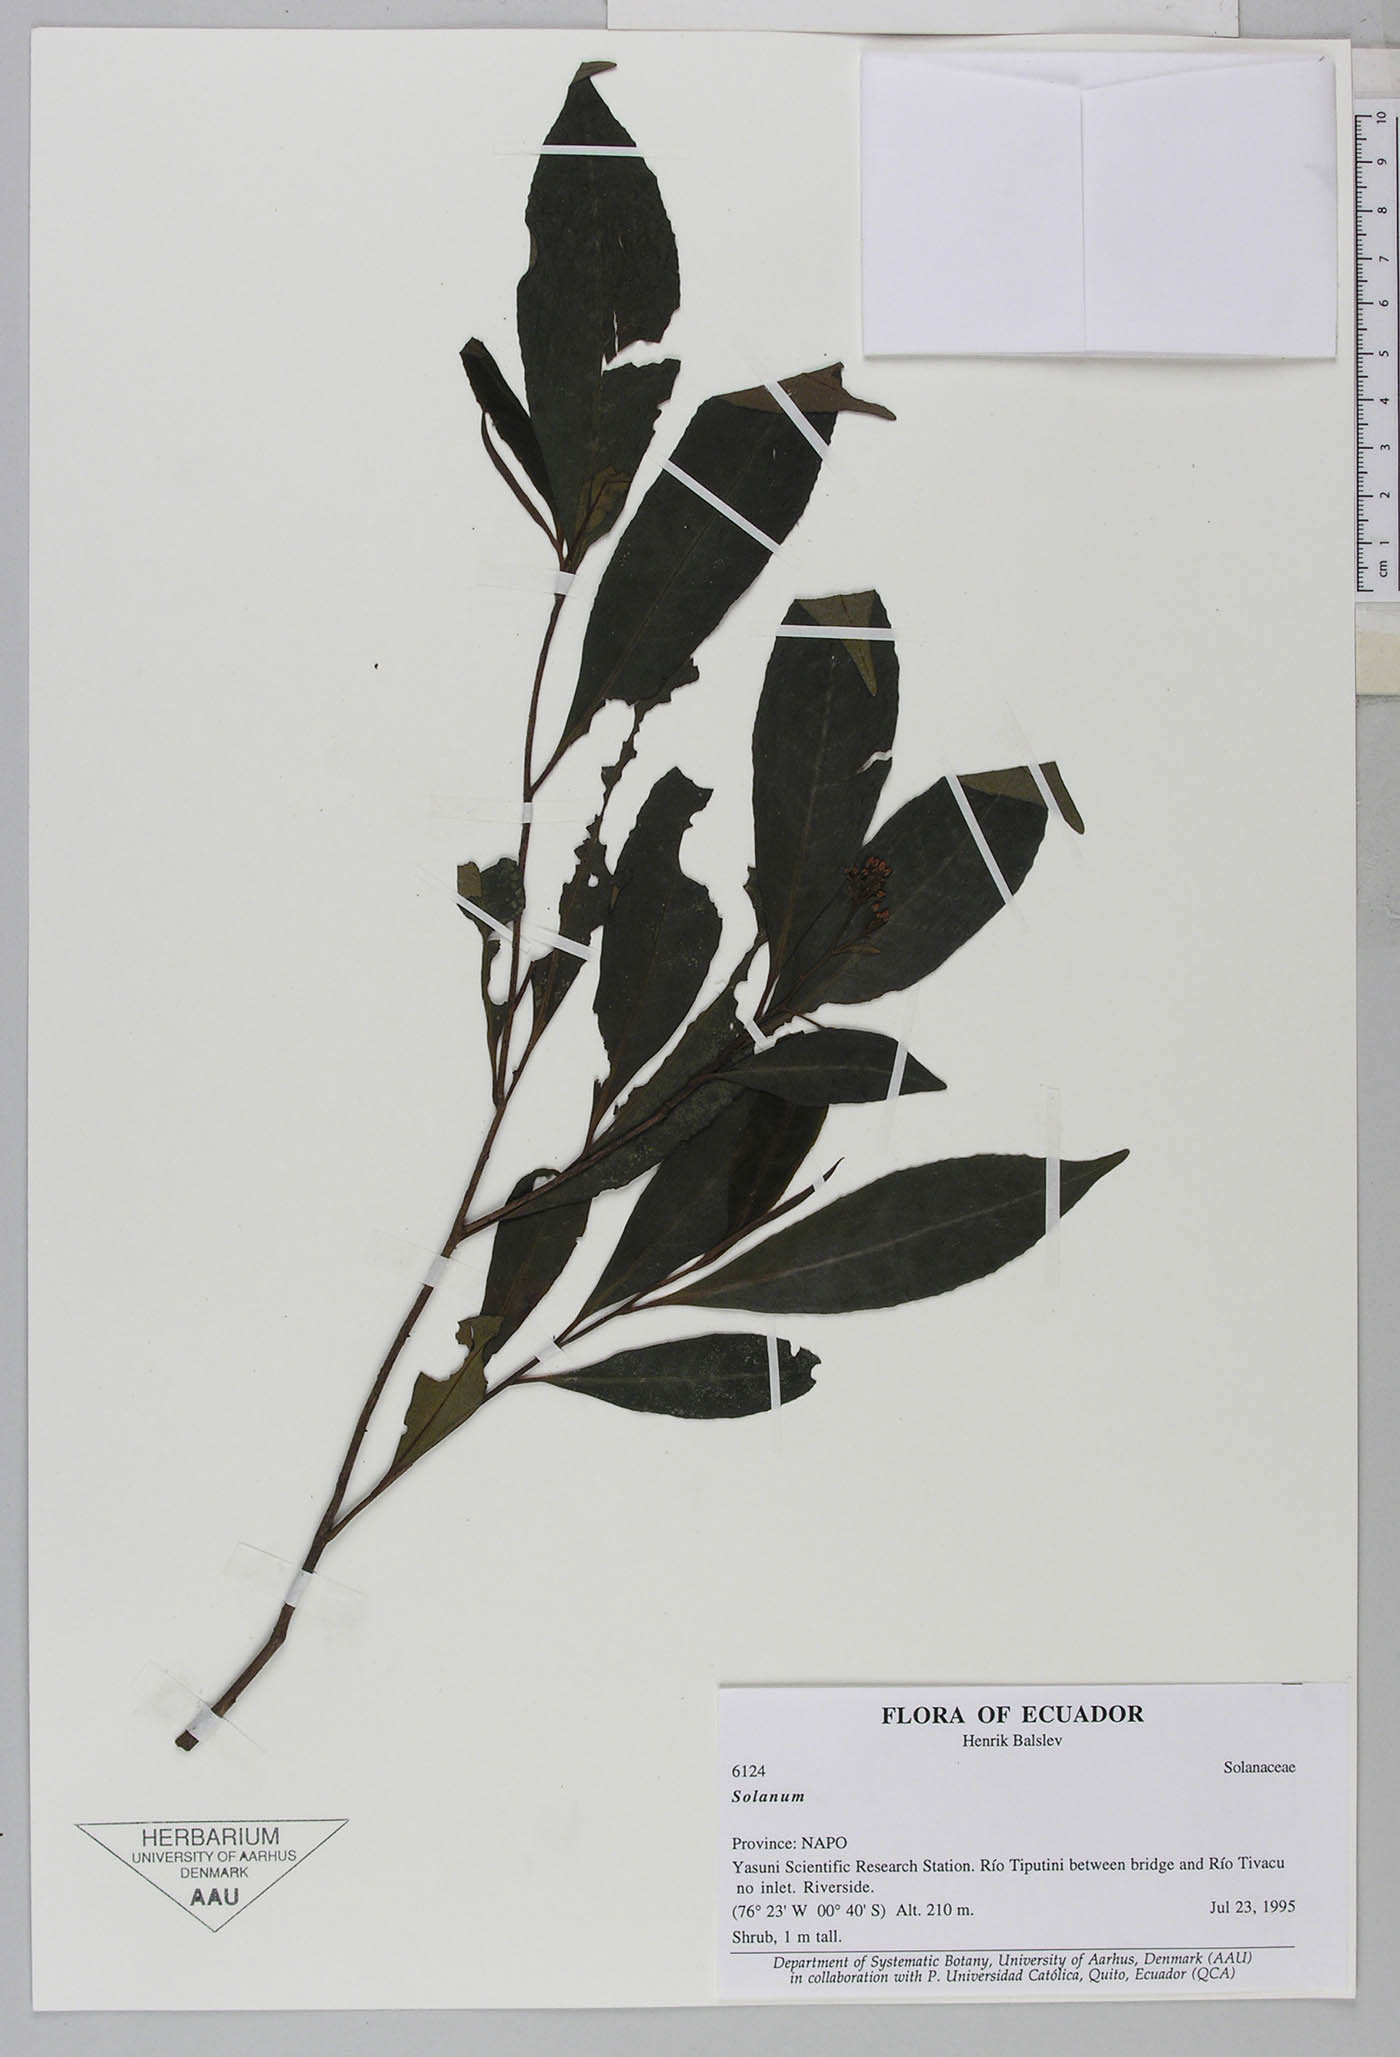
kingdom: Plantae
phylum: Tracheophyta
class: Magnoliopsida
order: Ericales
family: Primulaceae
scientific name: Primulaceae
